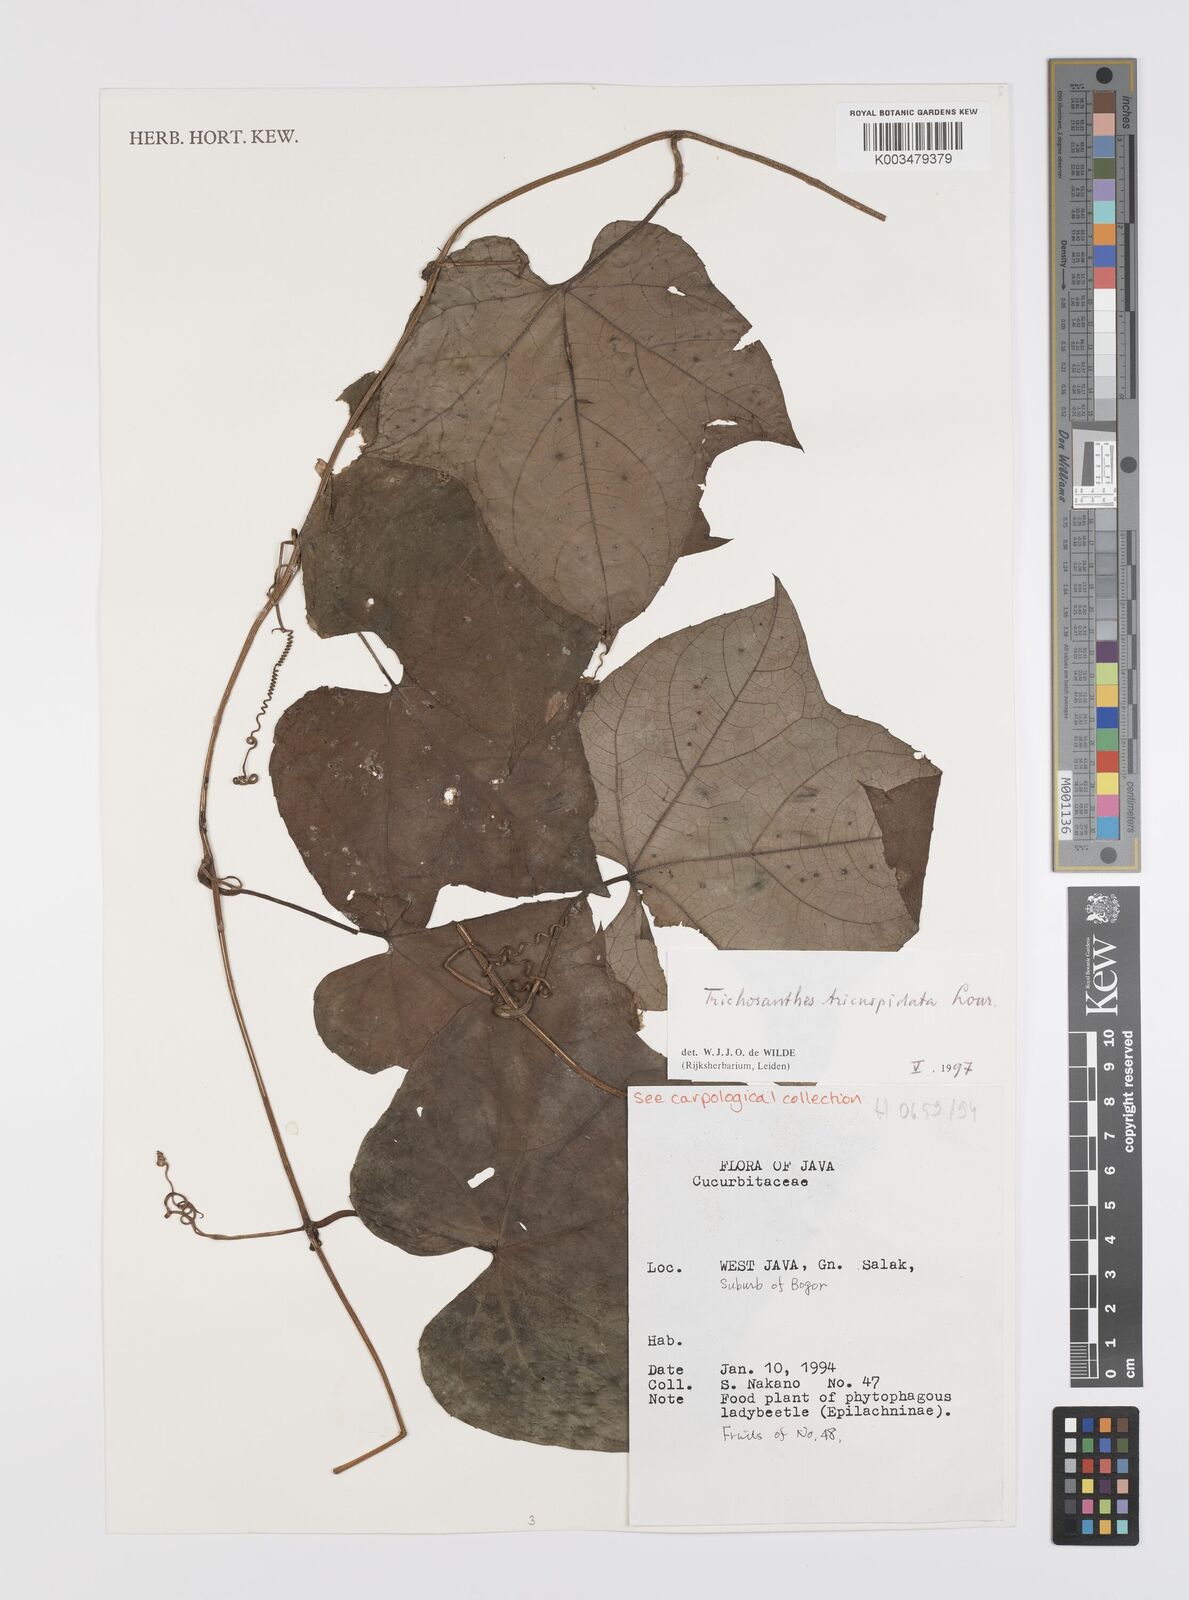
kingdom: Plantae
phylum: Tracheophyta
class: Magnoliopsida
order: Cucurbitales
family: Cucurbitaceae
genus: Trichosanthes
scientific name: Trichosanthes tricuspidata
